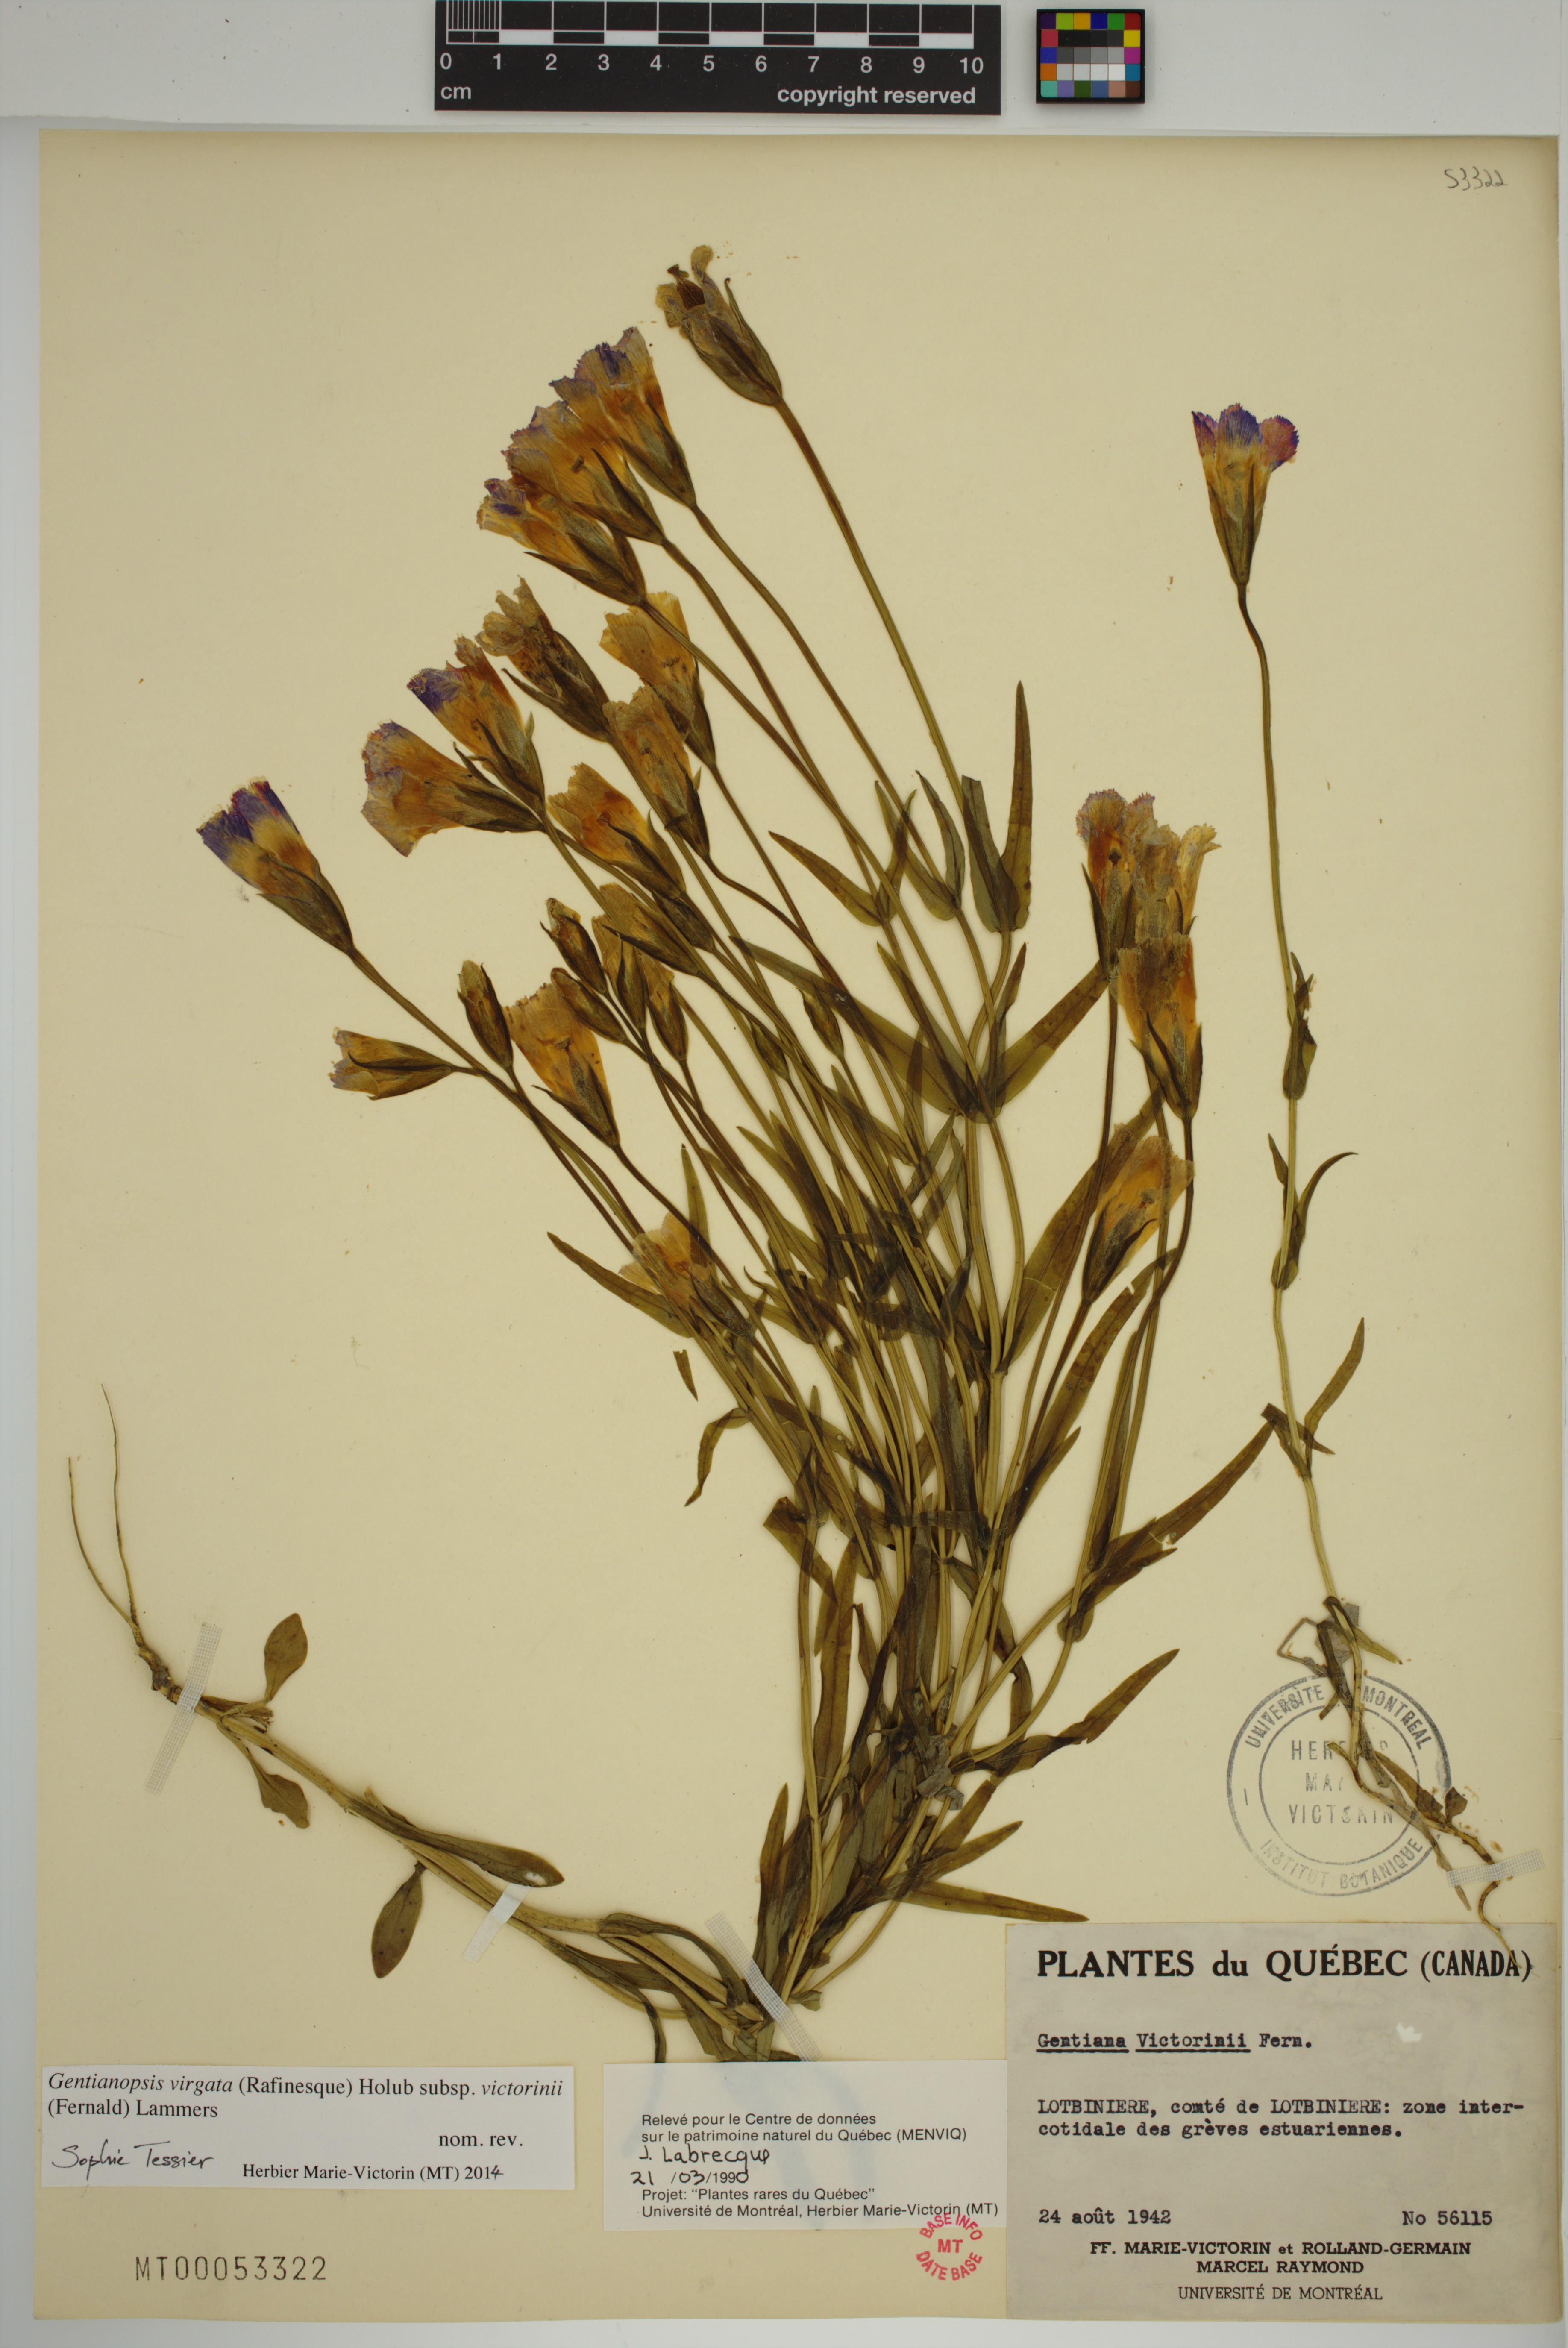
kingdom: Plantae
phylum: Tracheophyta
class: Magnoliopsida
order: Gentianales
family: Gentianaceae
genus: Gentianopsis
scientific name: Gentianopsis victorinii
